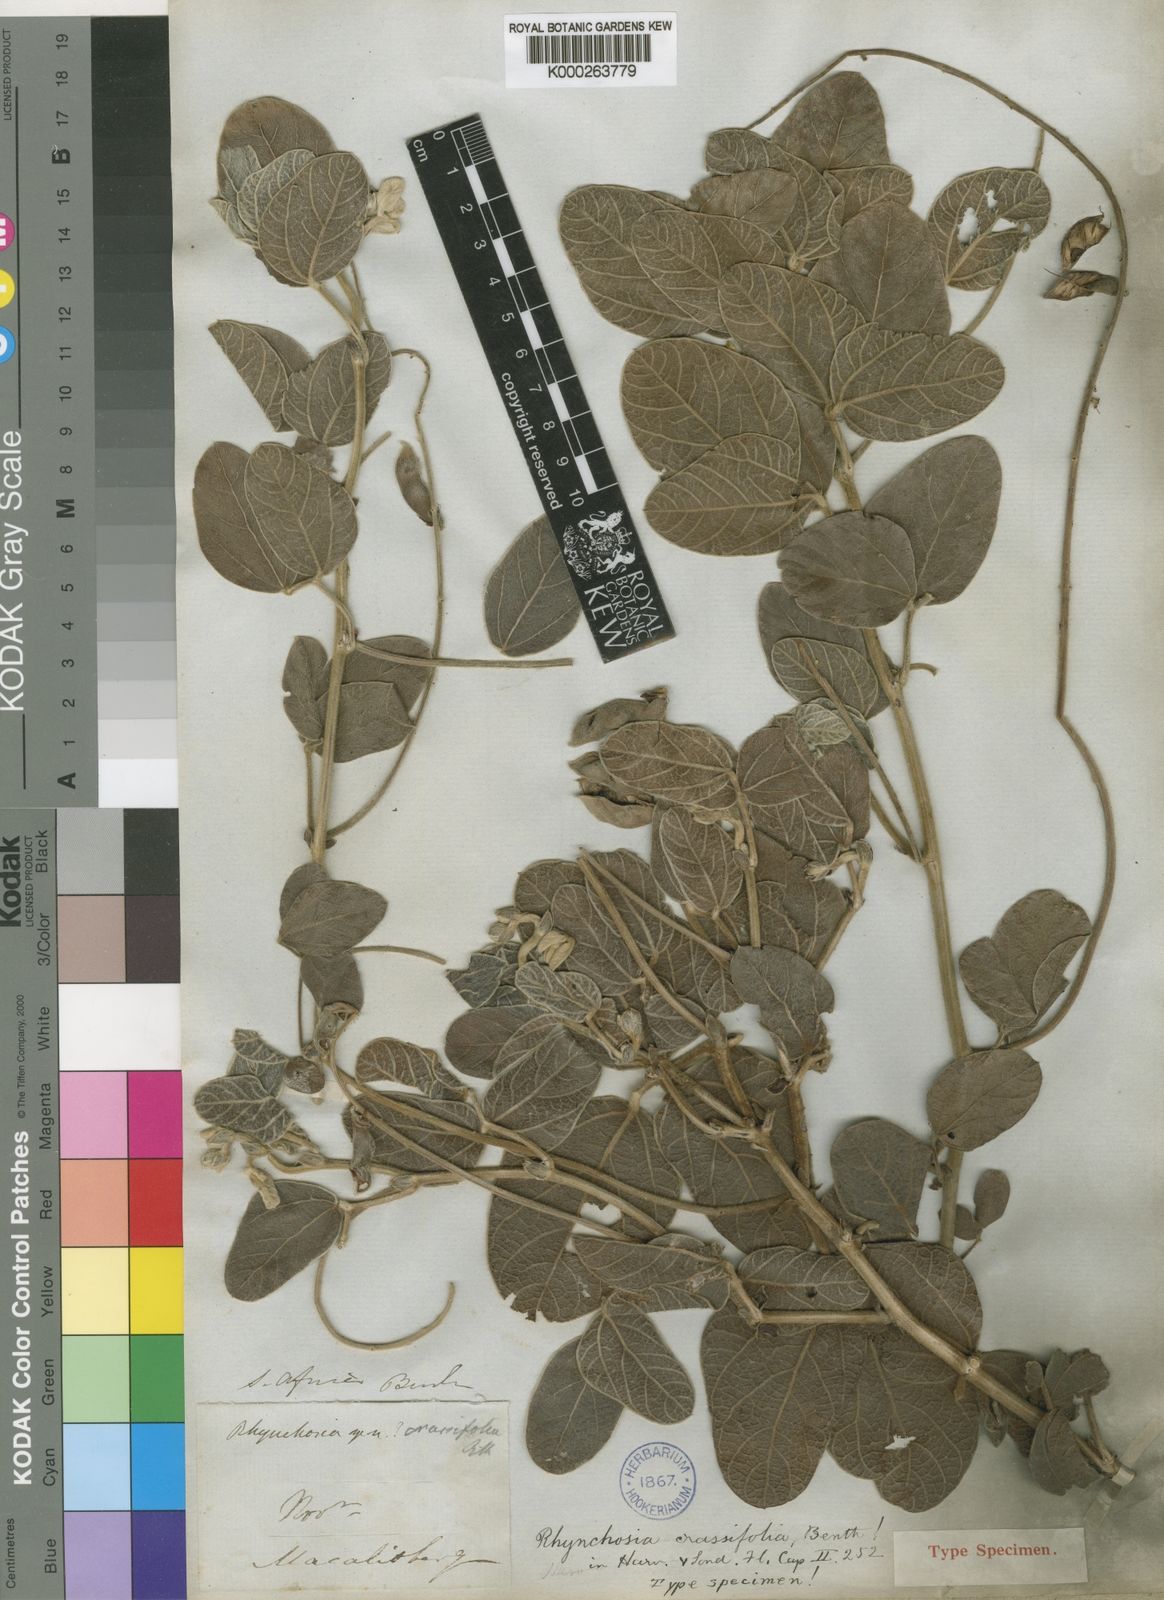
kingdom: Plantae
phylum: Tracheophyta
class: Magnoliopsida
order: Fabales
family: Fabaceae
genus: Rhynchosia
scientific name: Rhynchosia
